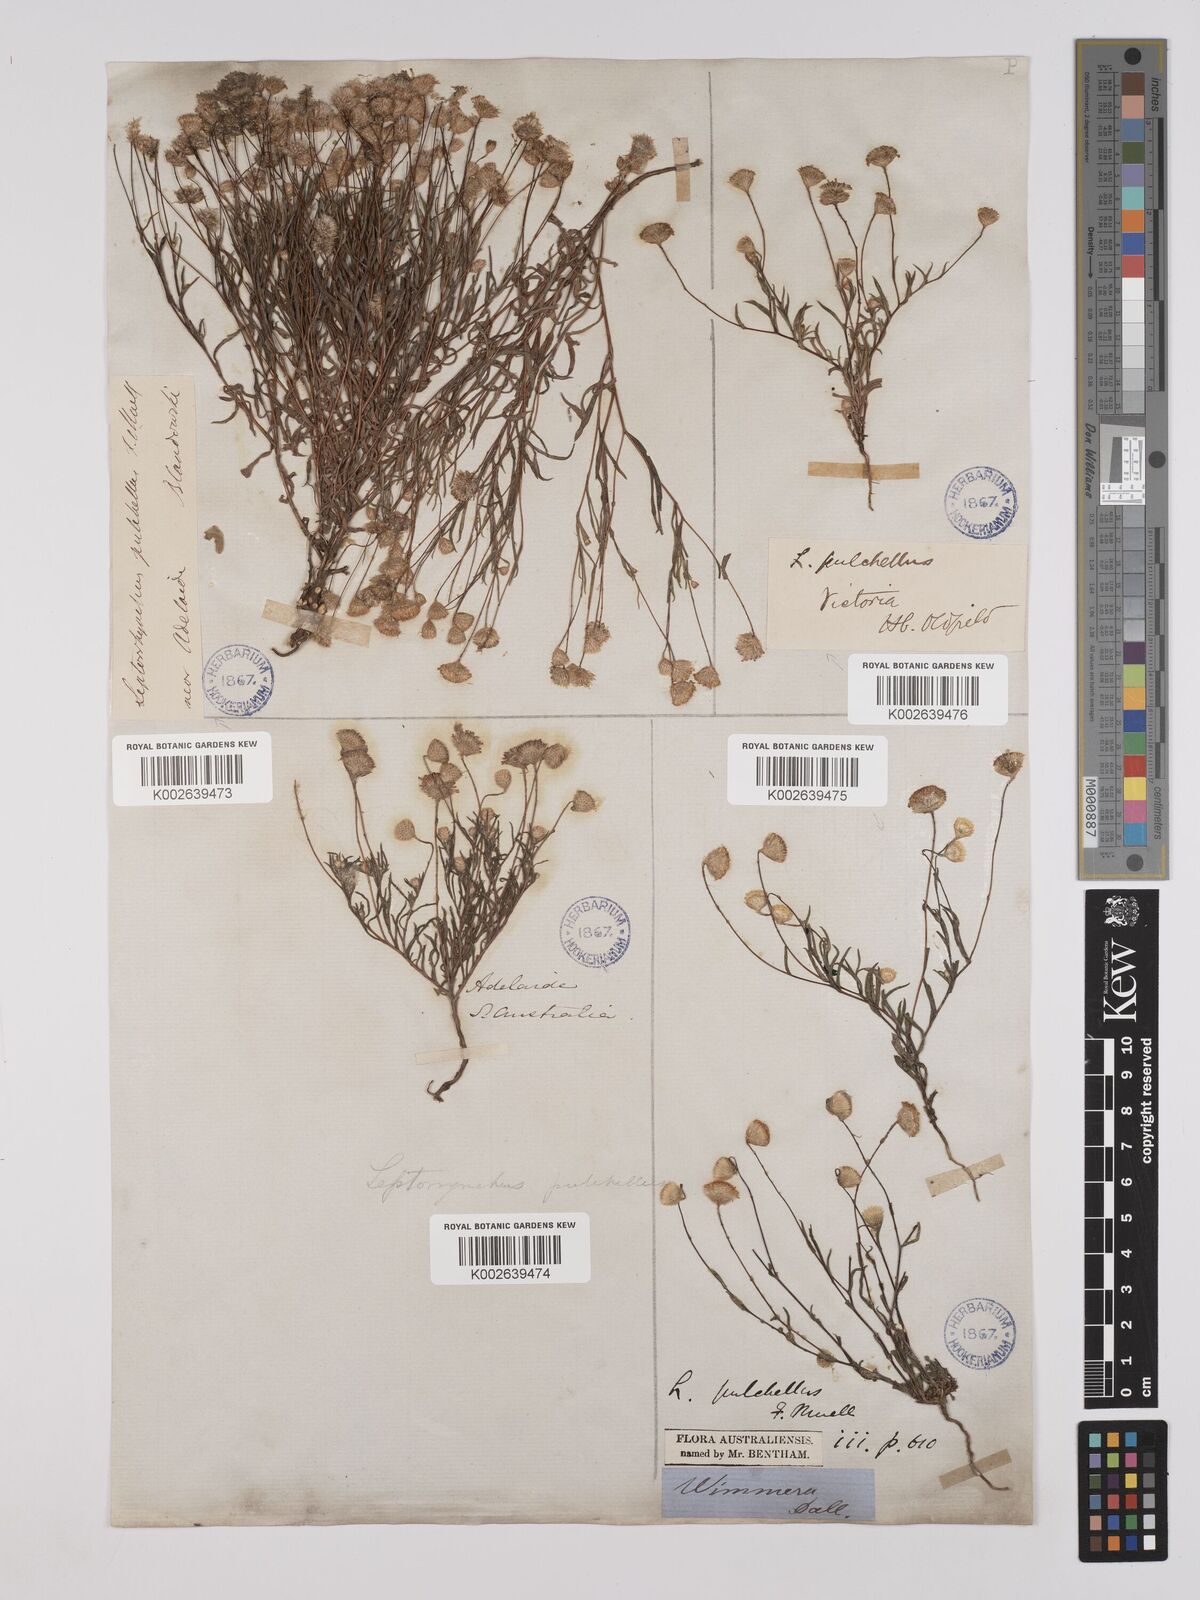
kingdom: Plantae
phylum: Tracheophyta
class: Magnoliopsida
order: Asterales
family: Asteraceae
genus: Leptorhynchos
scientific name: Leptorhynchos tetrachaetus
